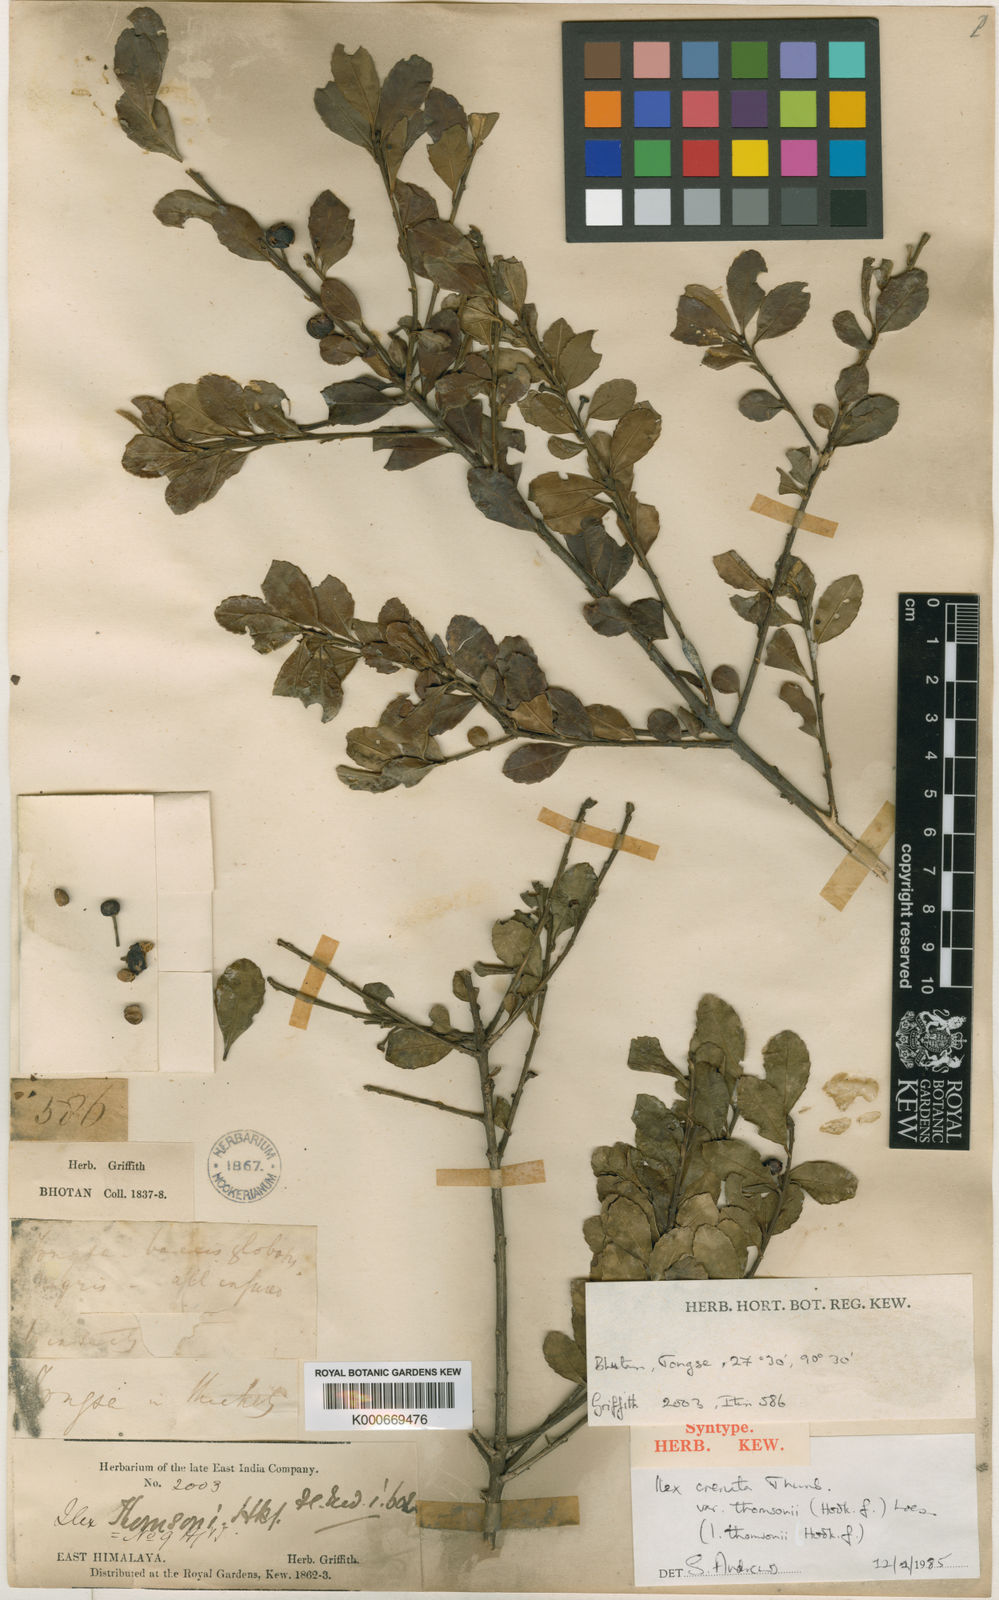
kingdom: Plantae
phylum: Tracheophyta
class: Magnoliopsida
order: Aquifoliales
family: Aquifoliaceae
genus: Ilex
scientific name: Ilex crenata
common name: Japanese holly
